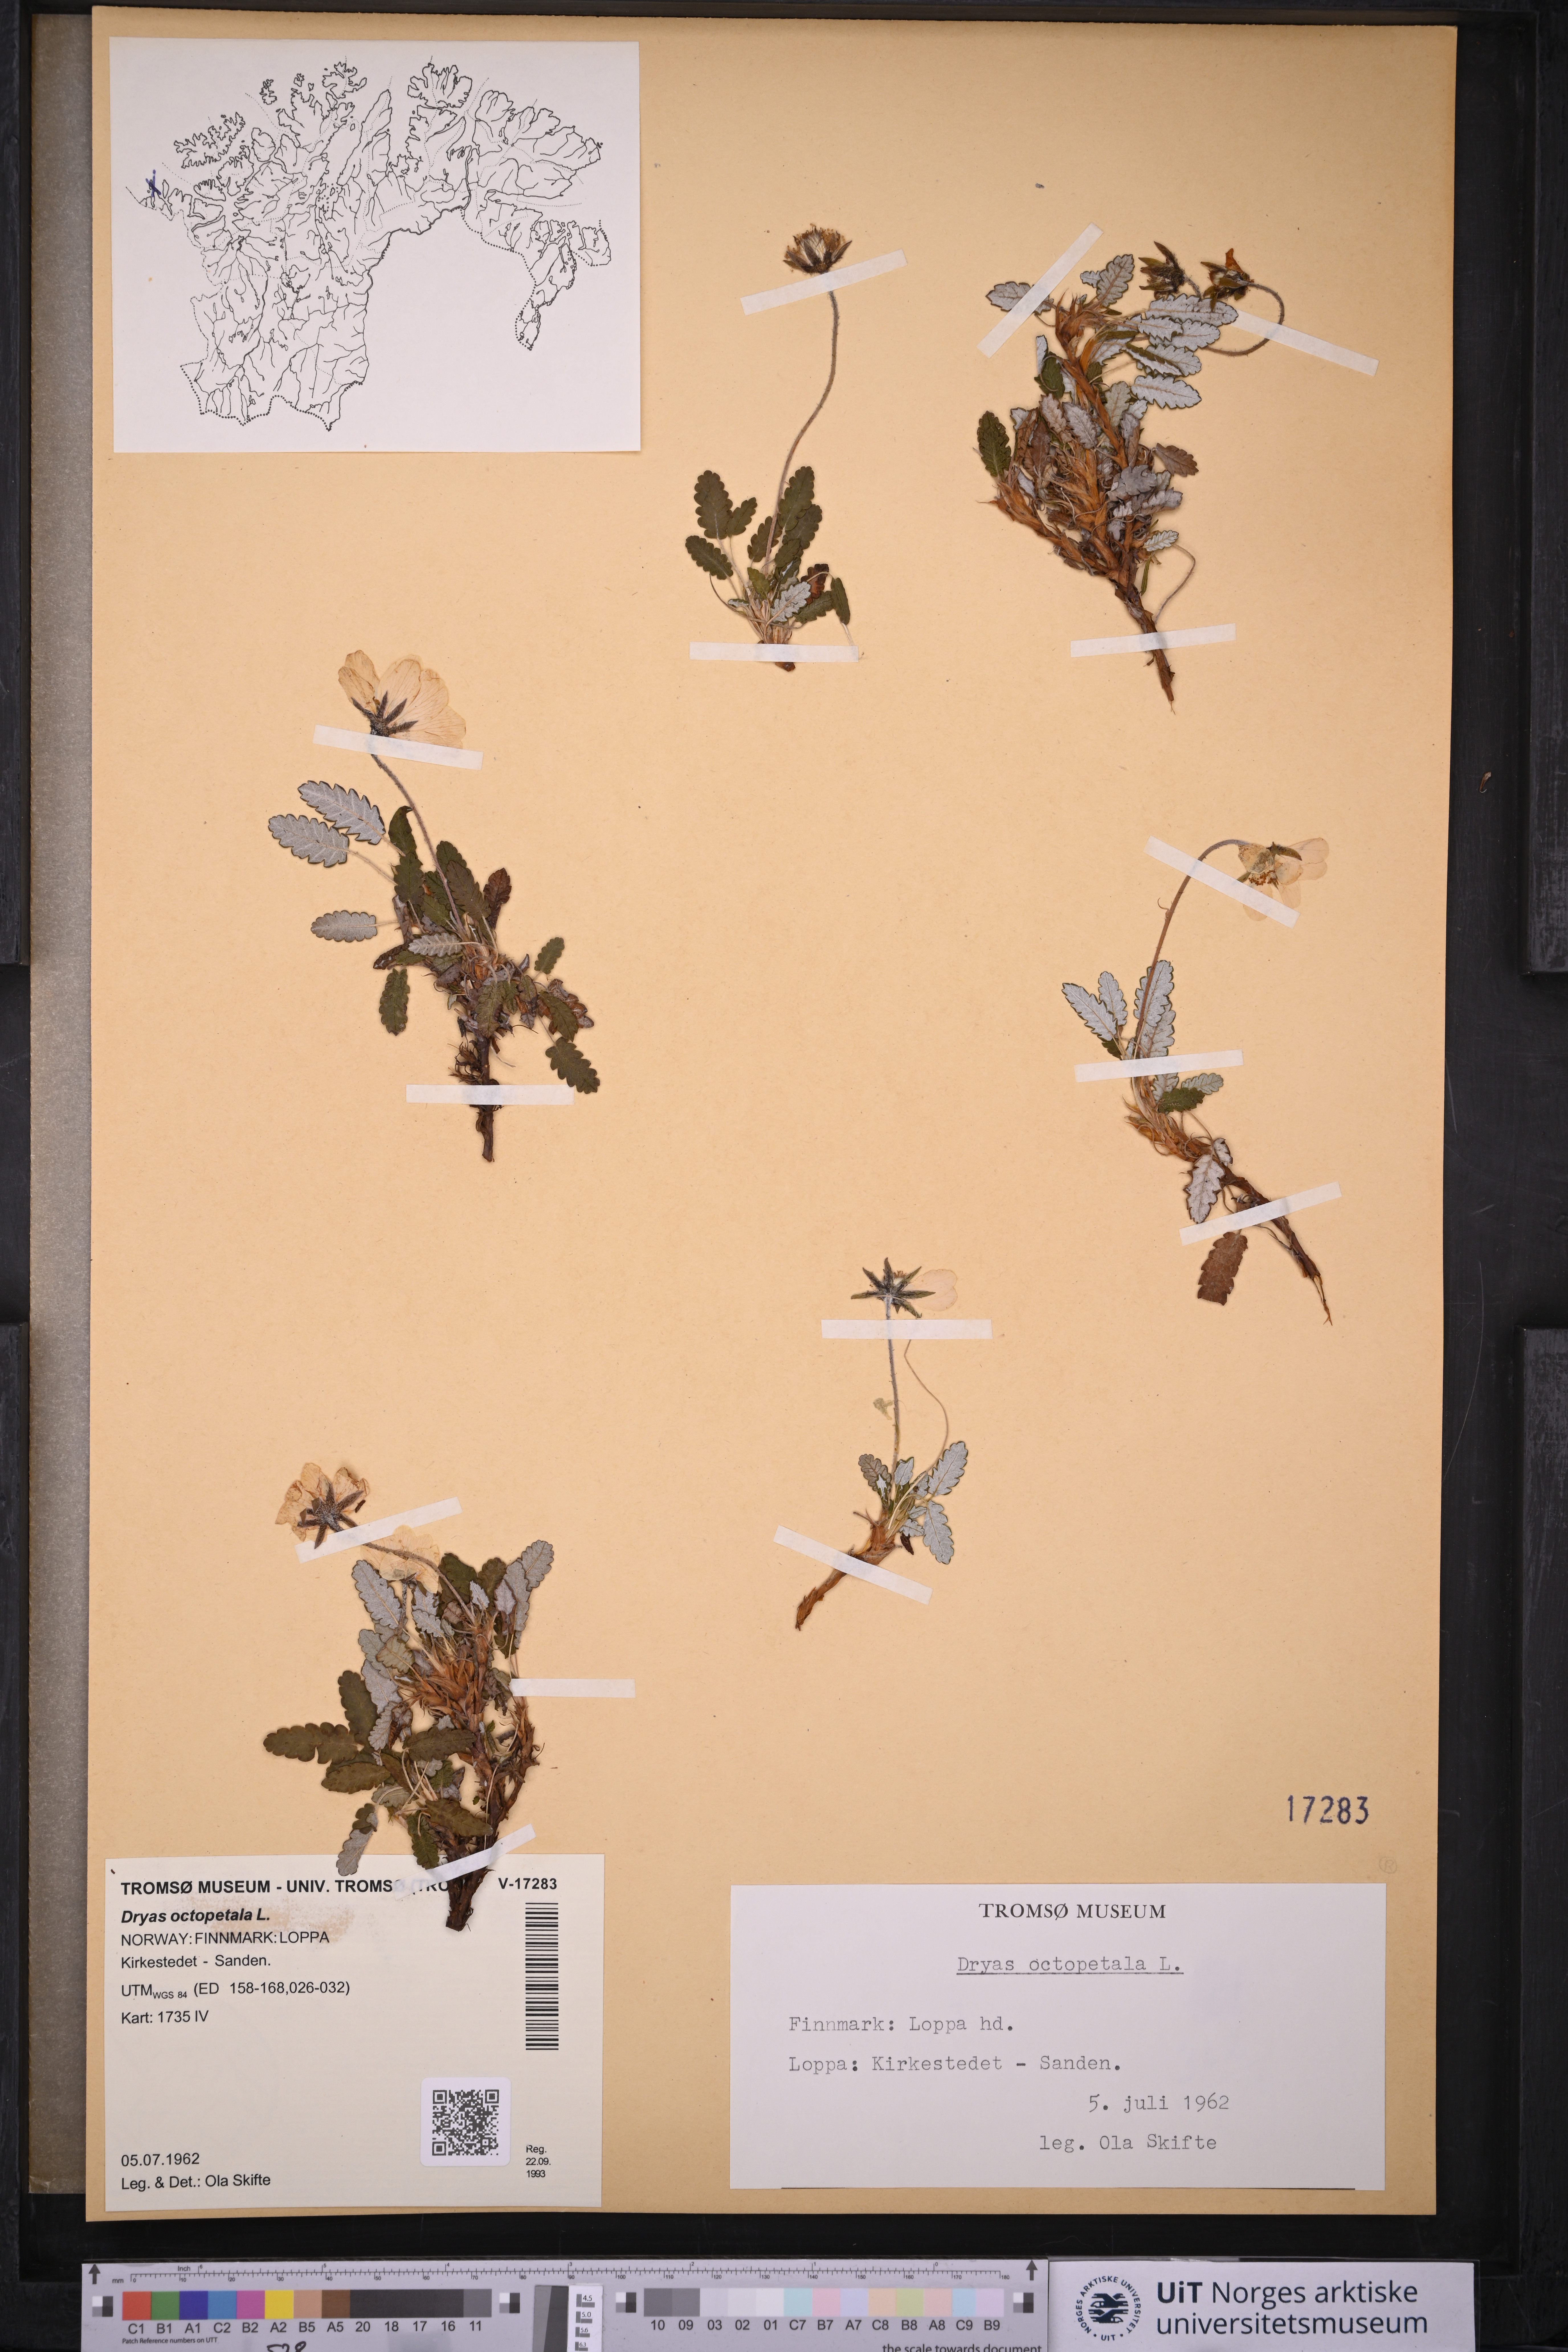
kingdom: Plantae
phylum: Tracheophyta
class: Magnoliopsida
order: Rosales
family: Rosaceae
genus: Dryas
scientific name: Dryas octopetala
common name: Eight-petal mountain-avens
